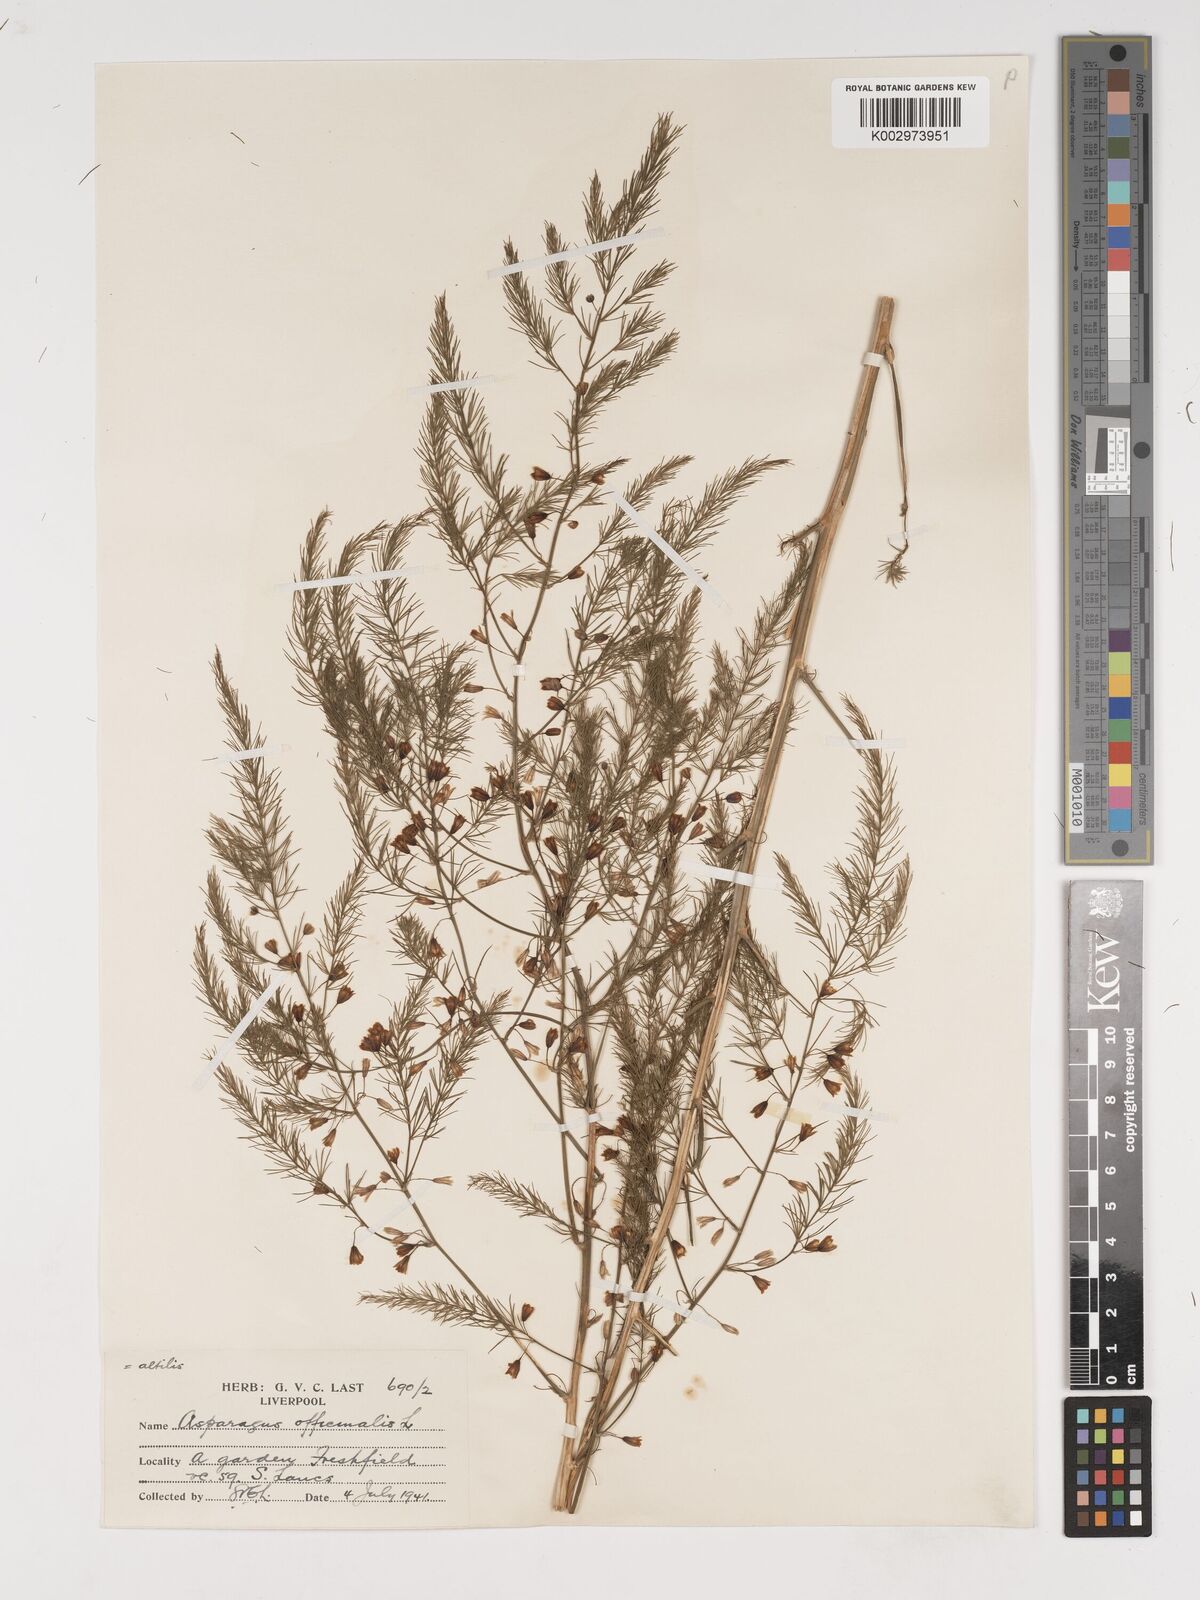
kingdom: Plantae
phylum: Tracheophyta
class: Liliopsida
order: Asparagales
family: Asparagaceae
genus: Asparagus
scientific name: Asparagus officinalis
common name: Garden asparagus
